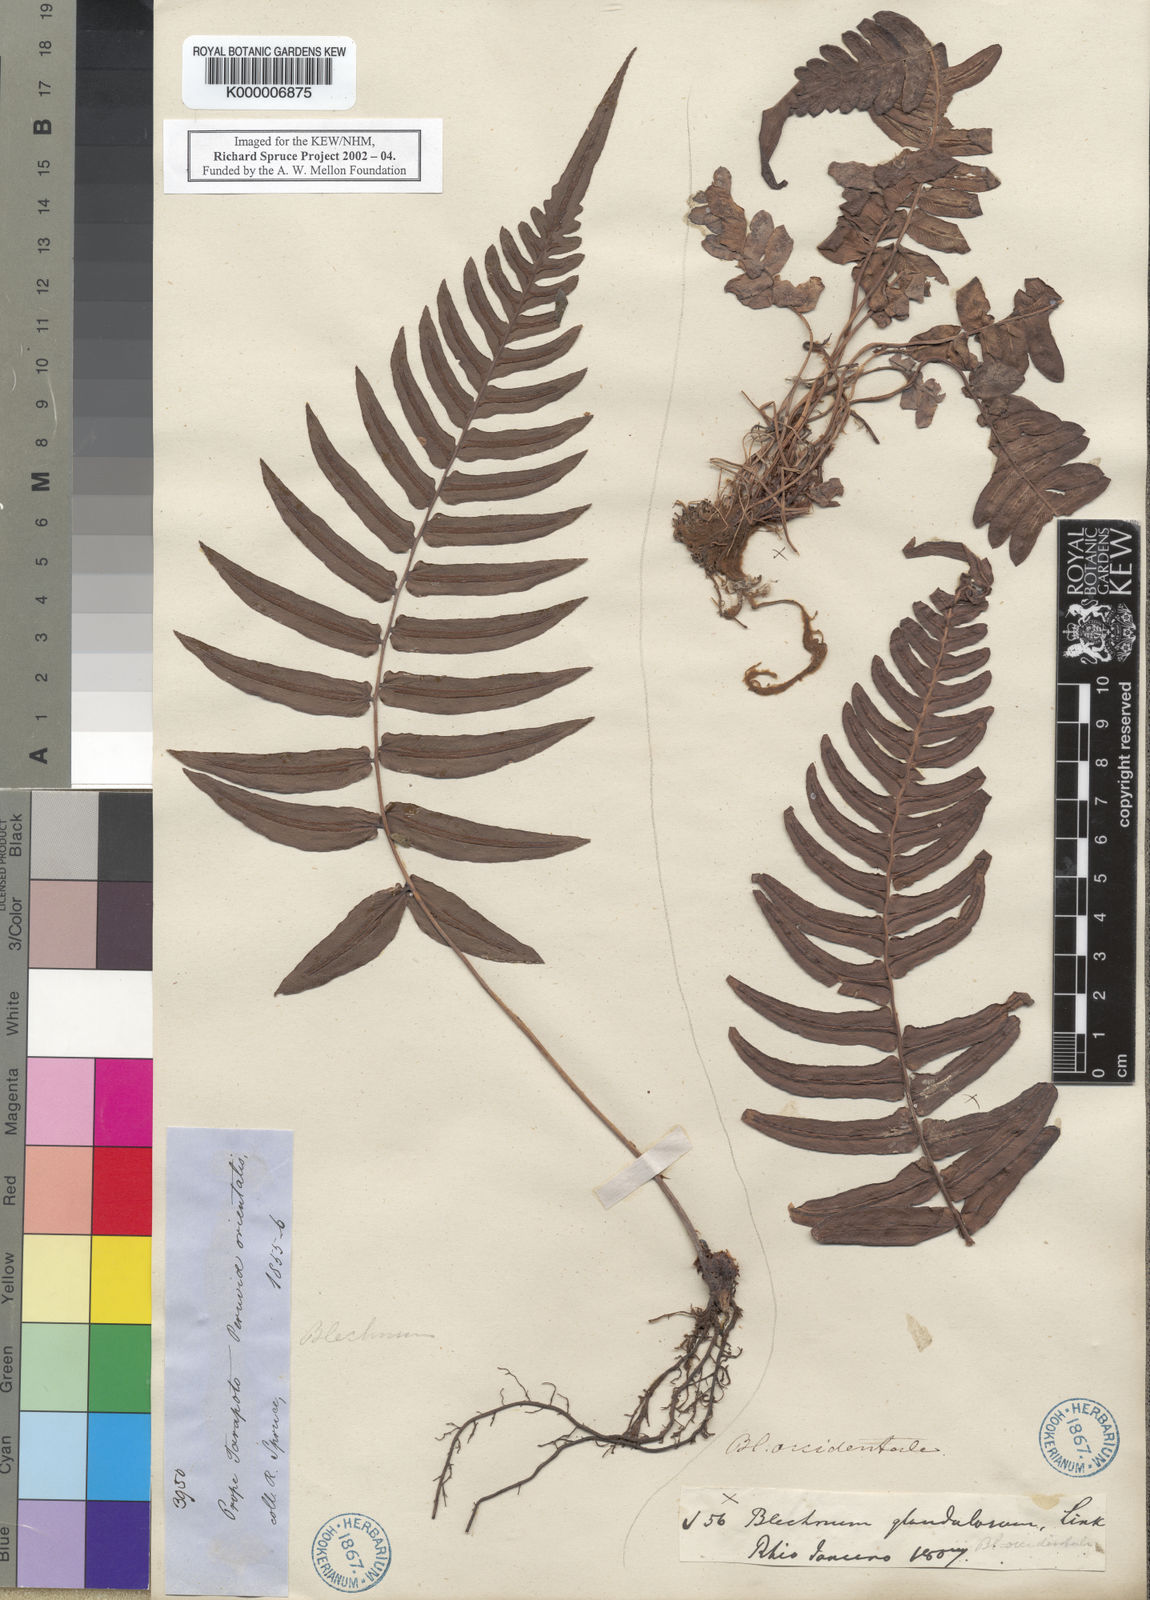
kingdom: Plantae
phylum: Tracheophyta
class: Polypodiopsida
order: Polypodiales
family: Blechnaceae
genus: Blechnum
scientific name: Blechnum
